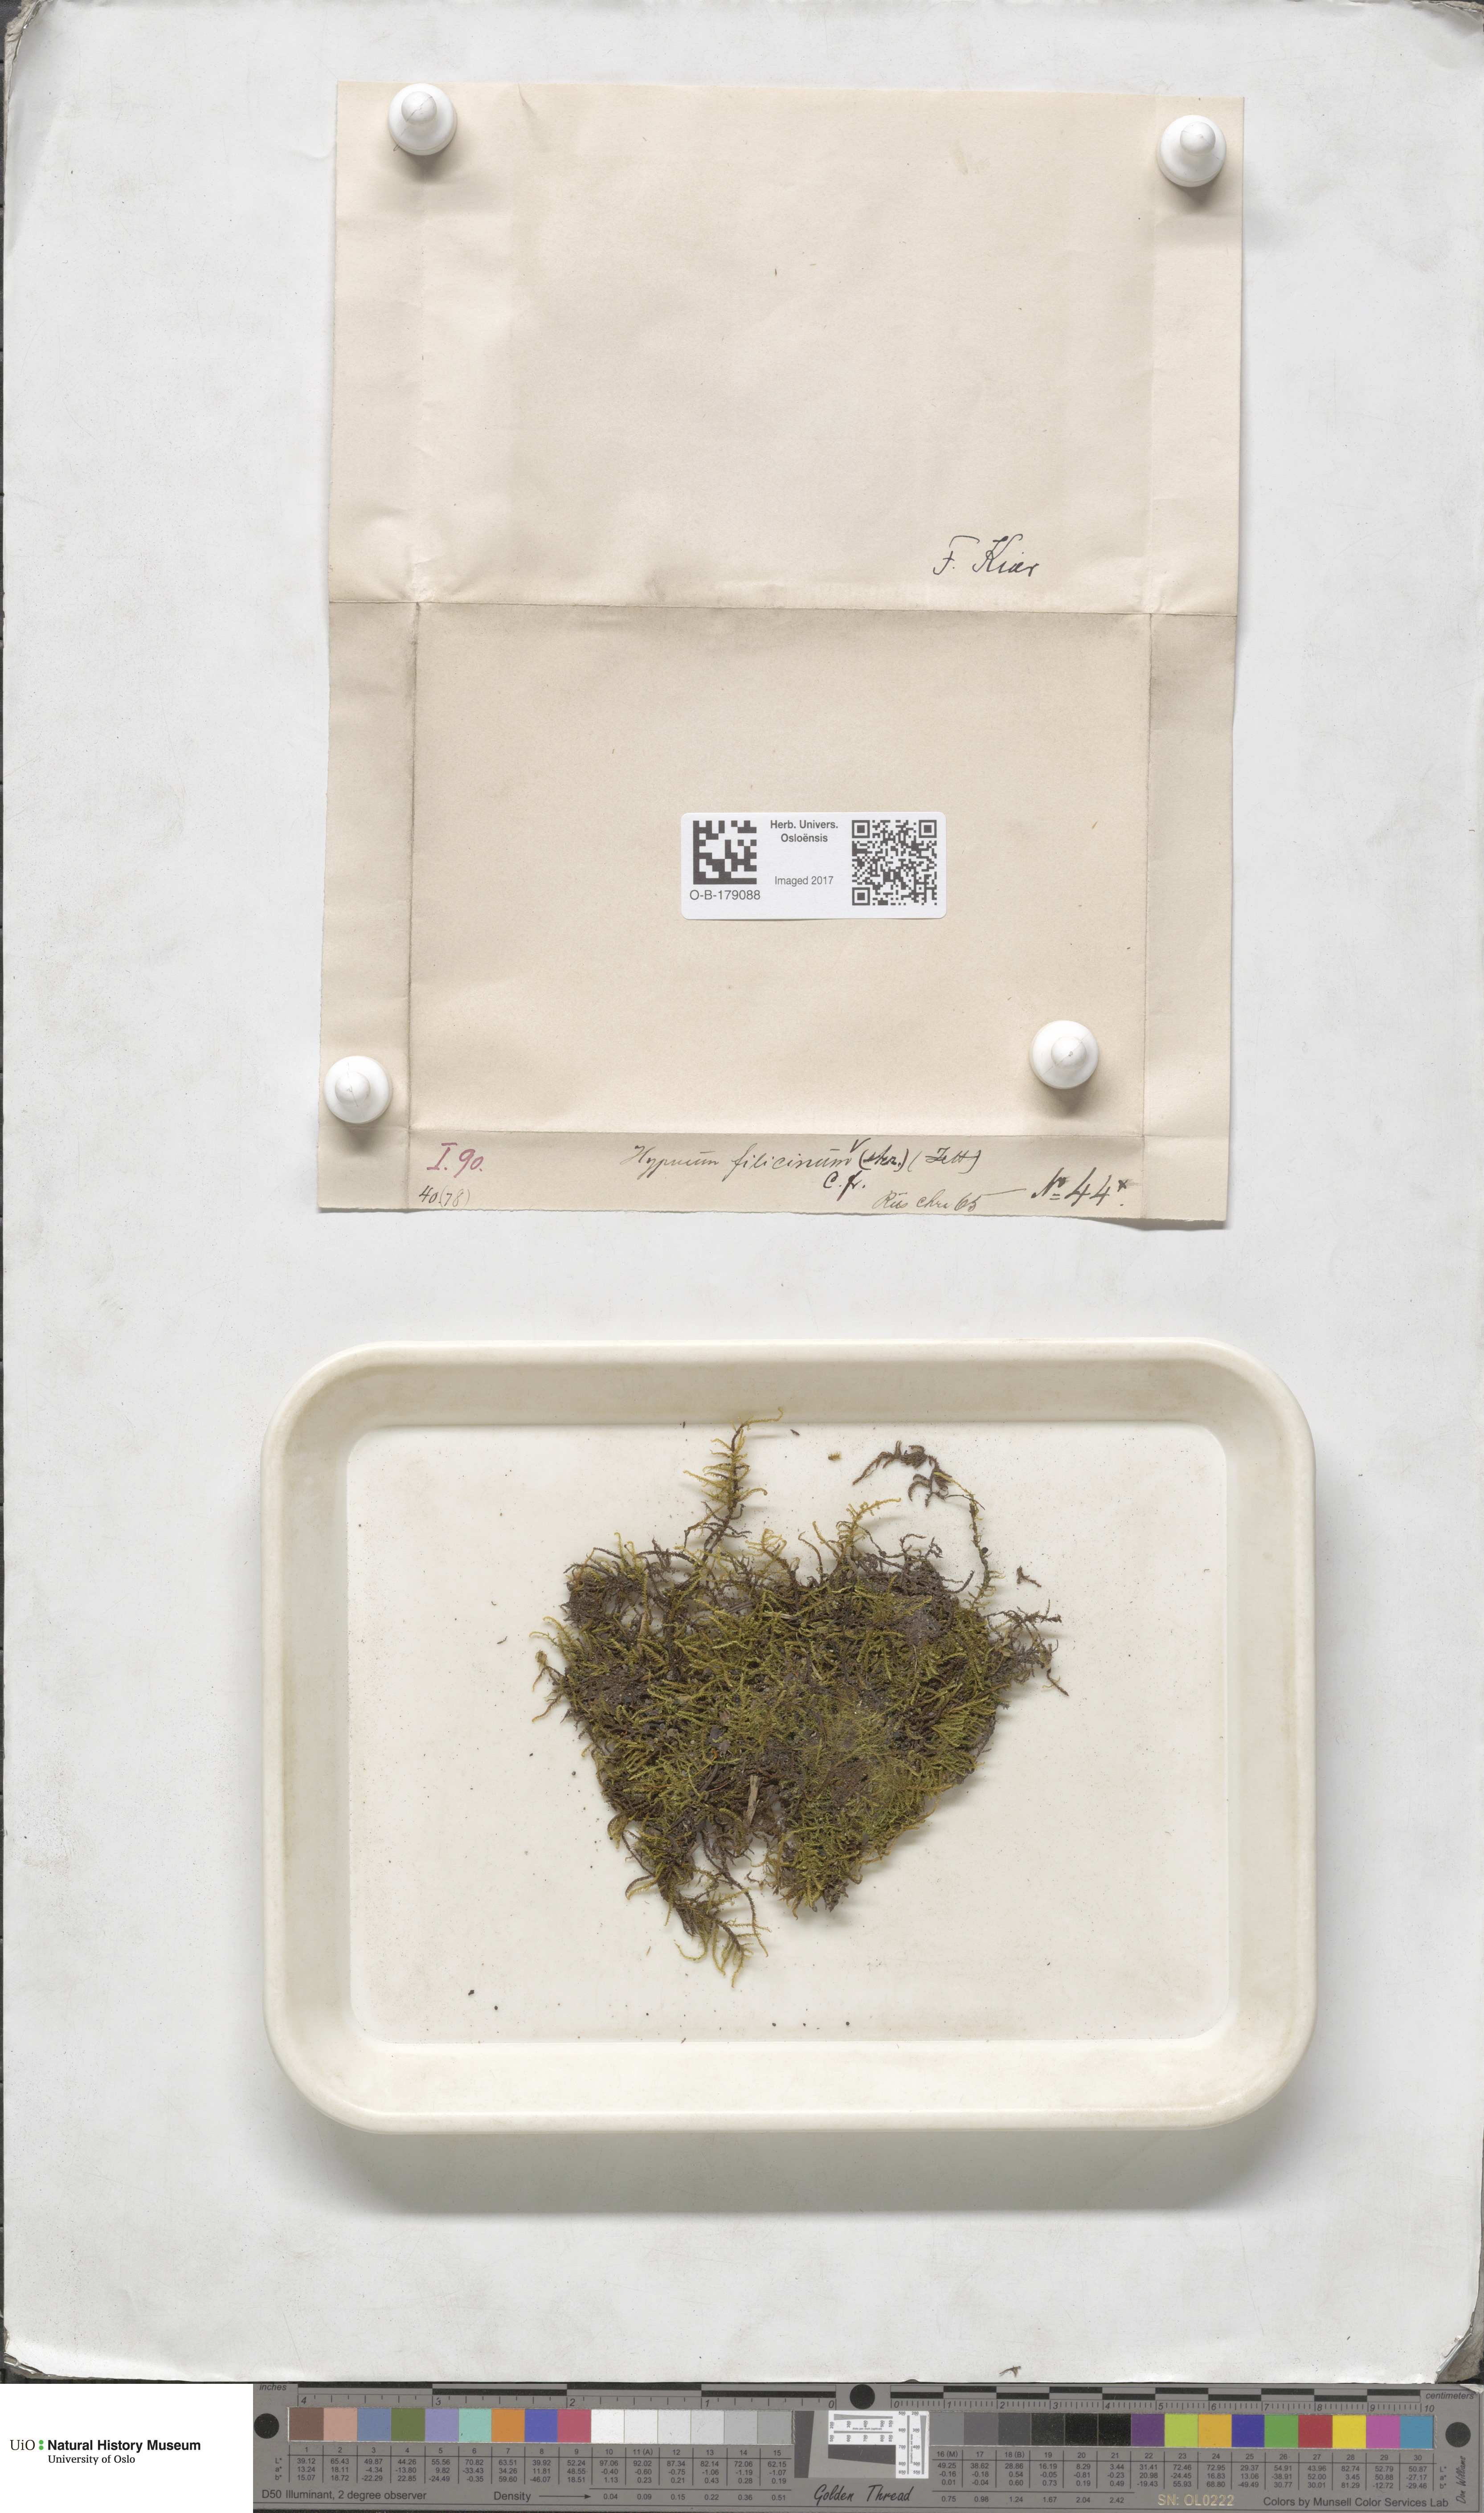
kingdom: Plantae
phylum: Bryophyta
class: Bryopsida
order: Hypnales
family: Amblystegiaceae
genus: Cratoneuron
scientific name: Cratoneuron filicinum
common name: Fern-leaved hook moss
